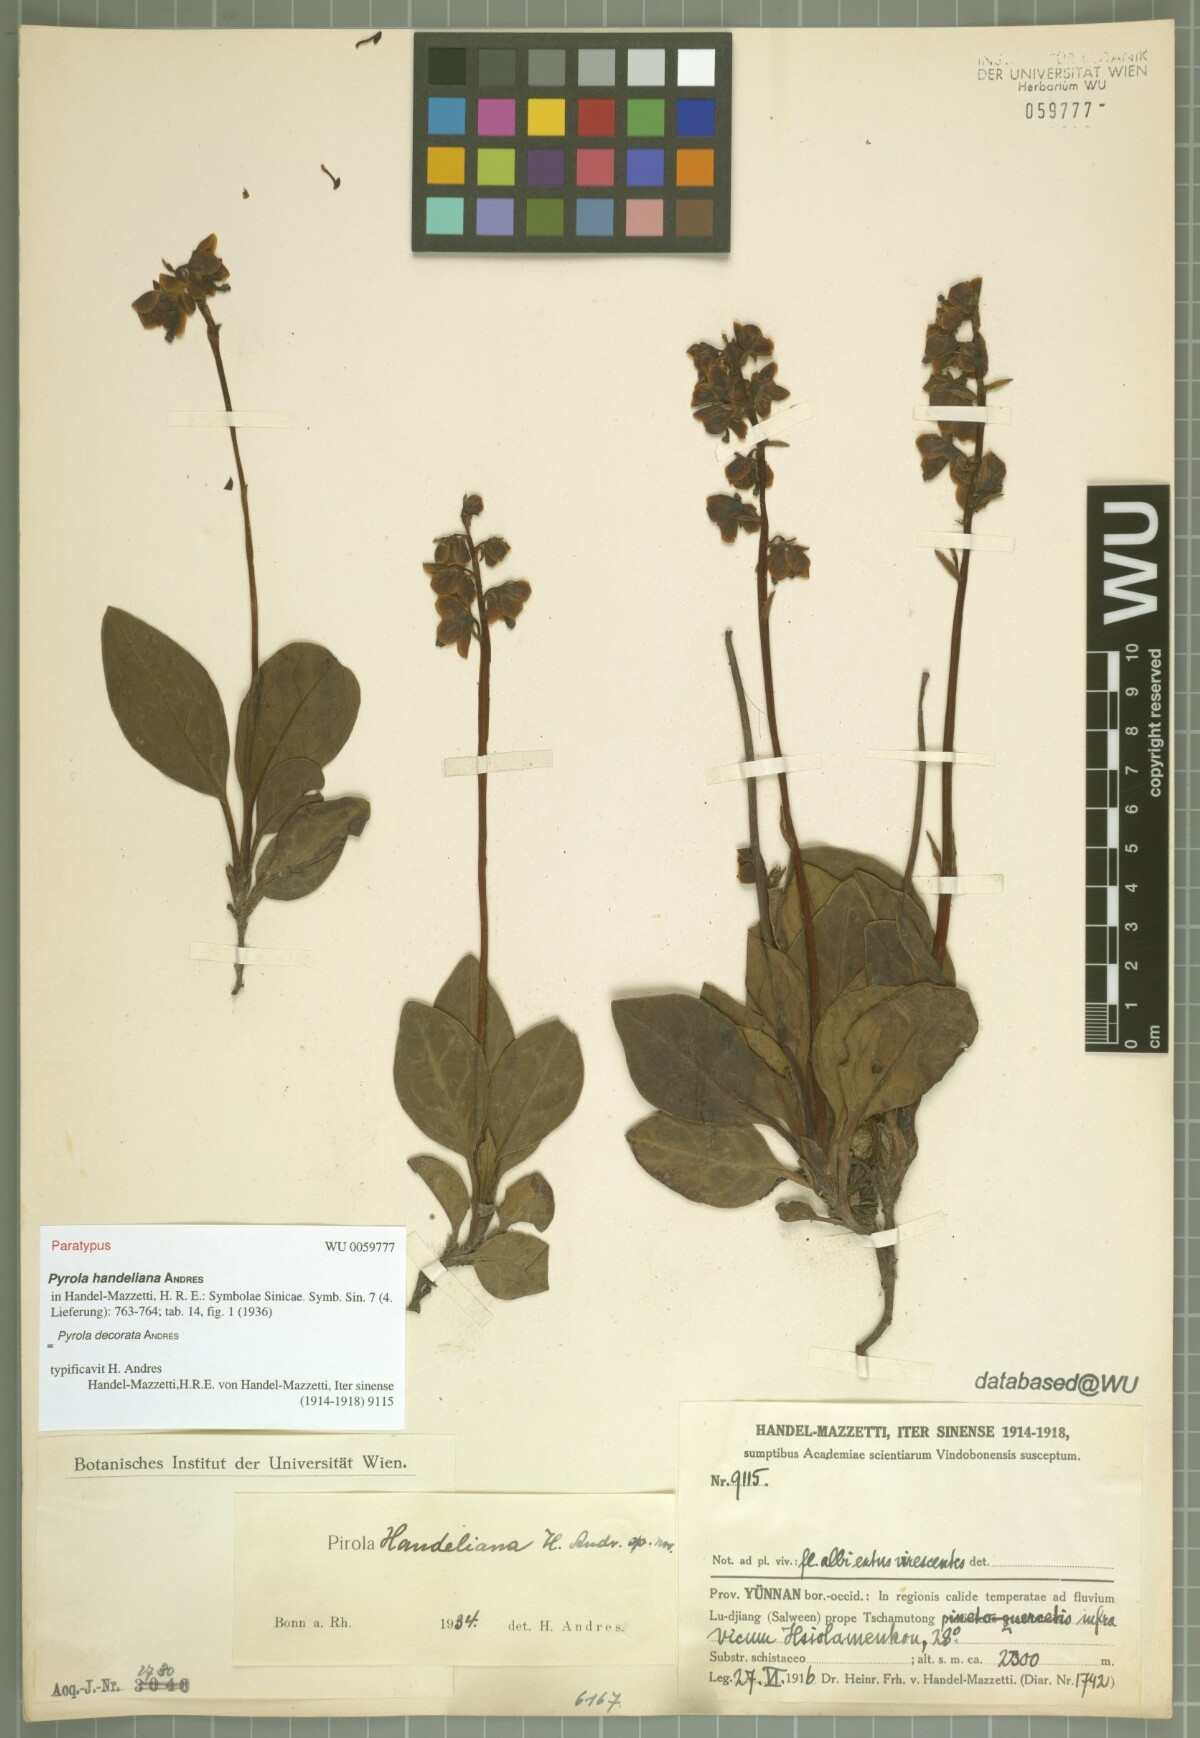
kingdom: Plantae
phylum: Tracheophyta
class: Magnoliopsida
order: Ericales
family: Ericaceae
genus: Pyrola
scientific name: Pyrola decorata
